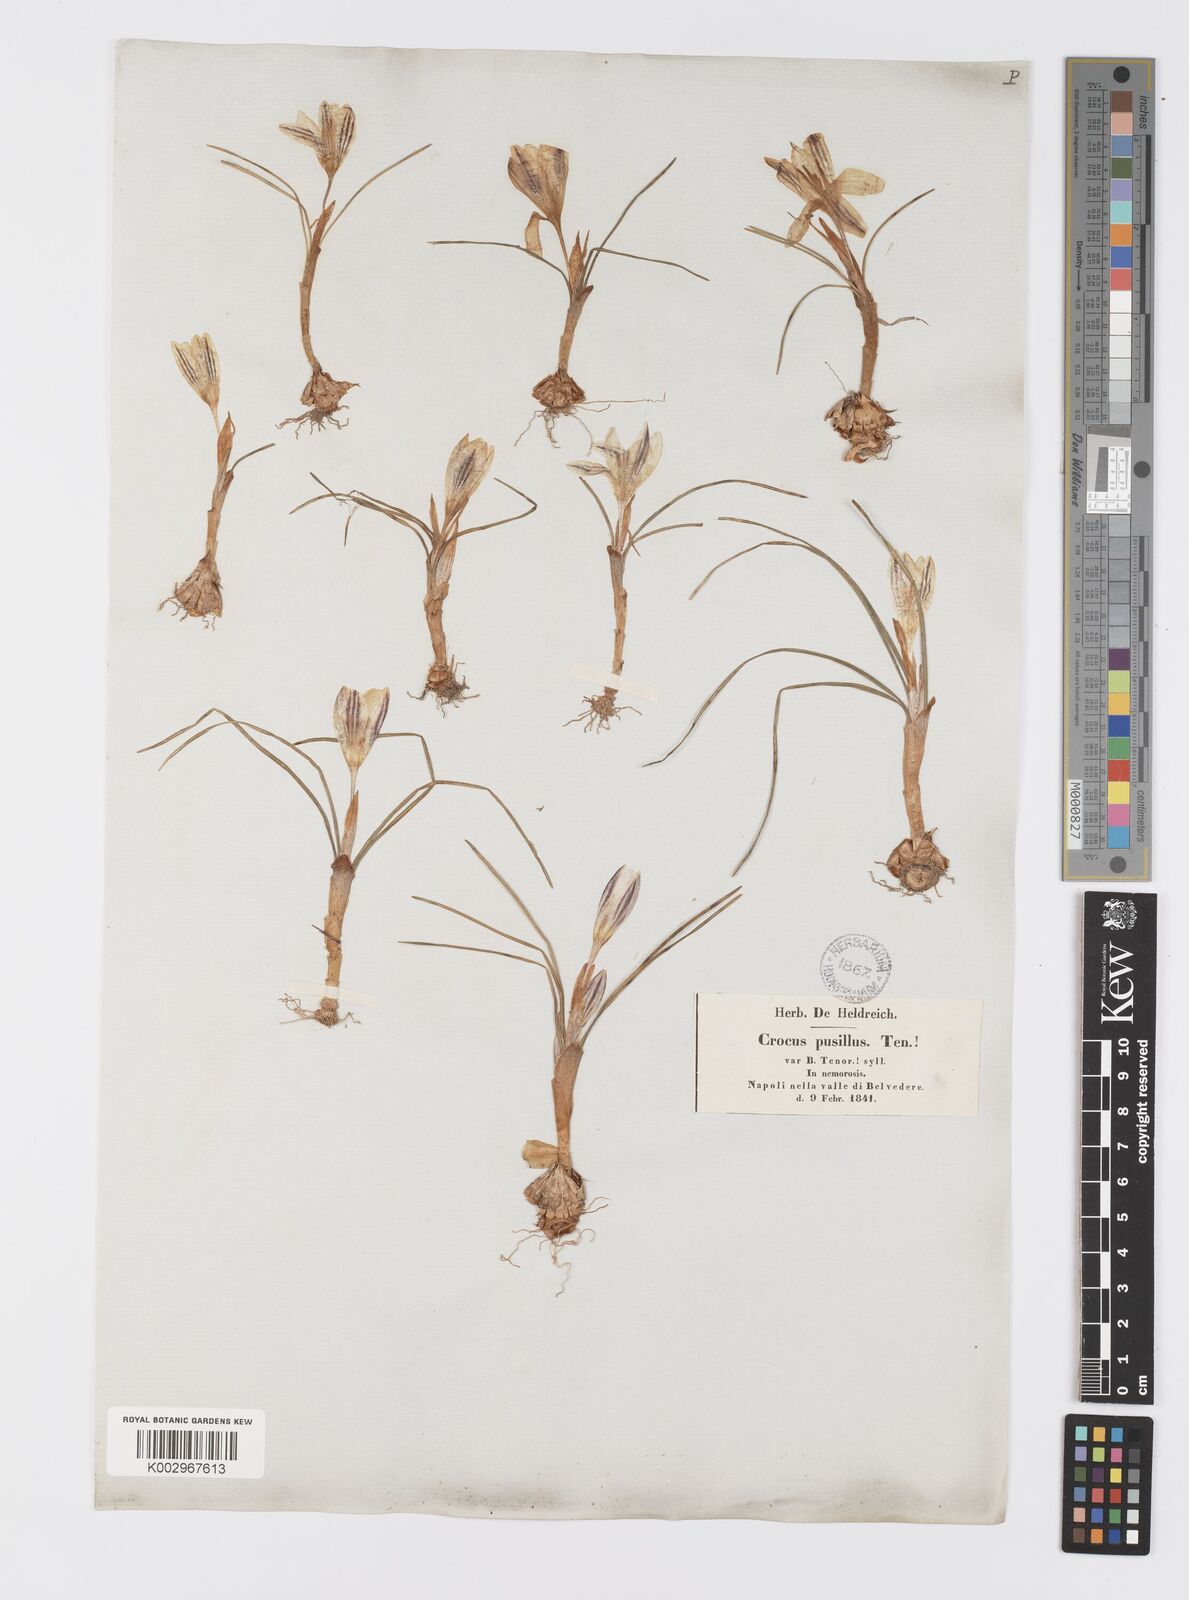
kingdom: Plantae
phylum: Tracheophyta
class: Liliopsida
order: Asparagales
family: Iridaceae
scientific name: Iridaceae
